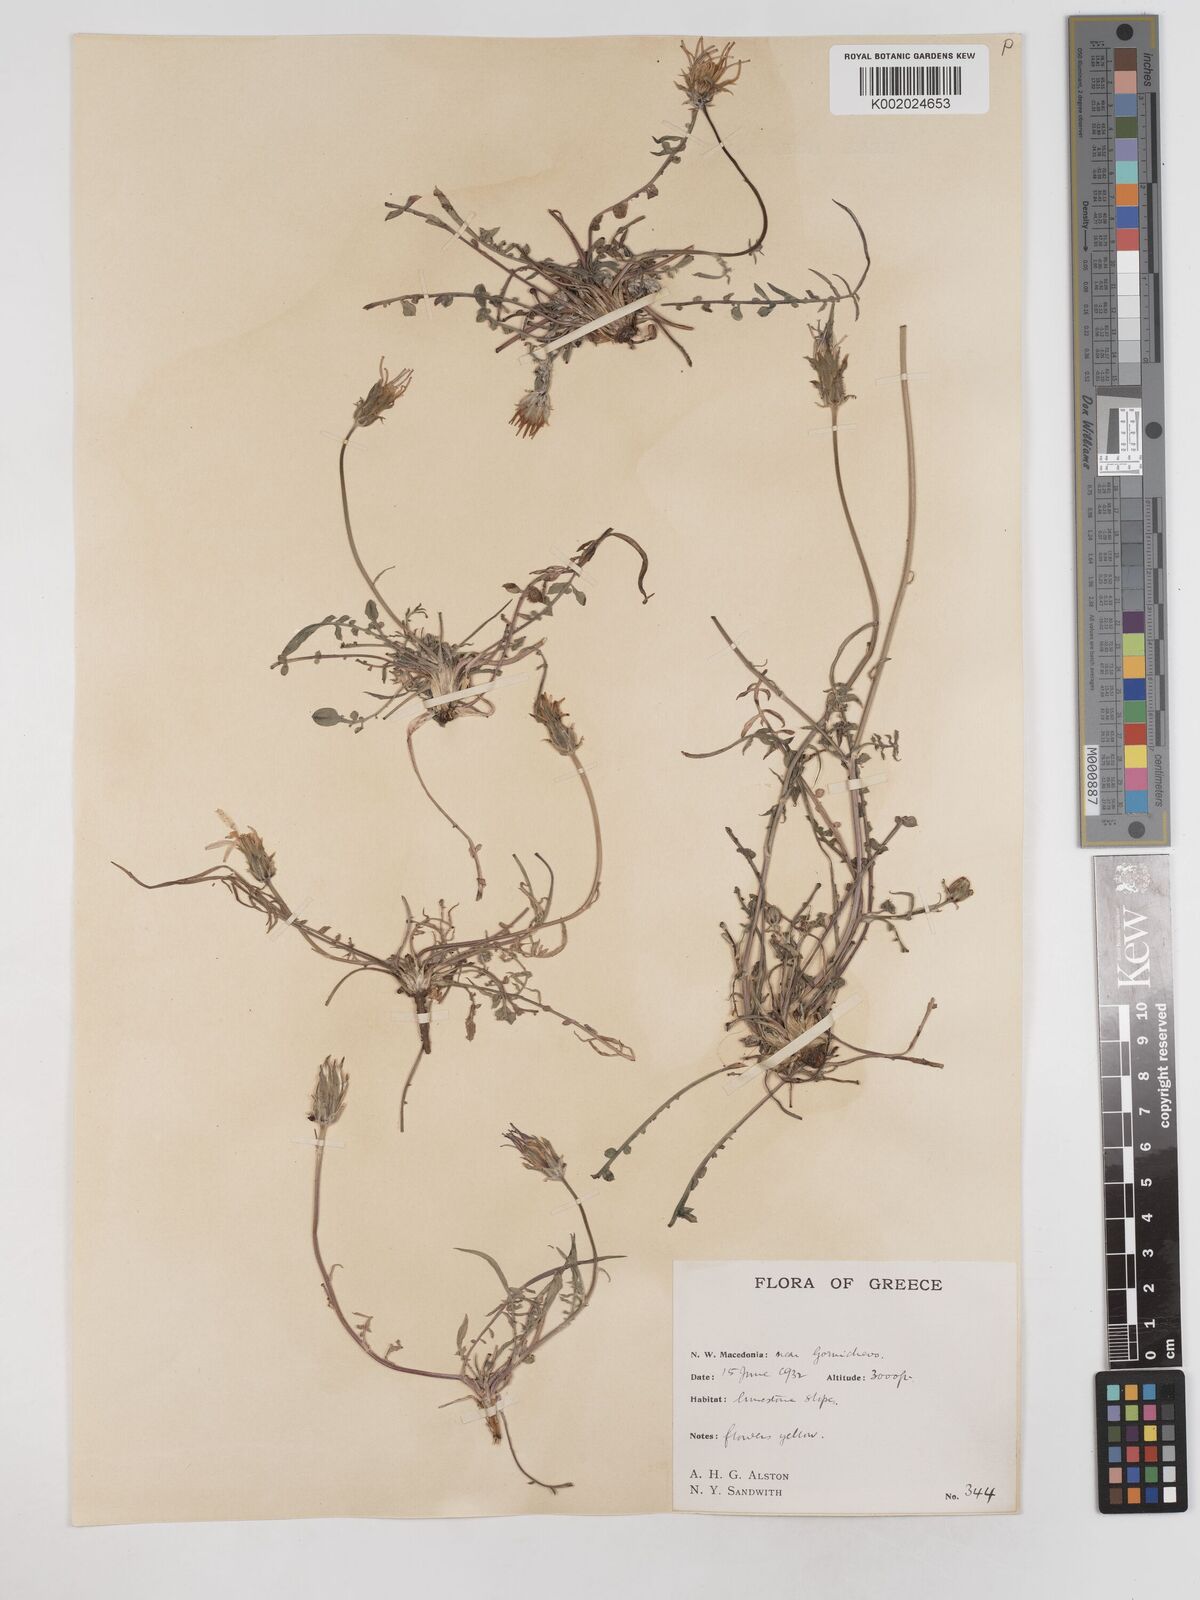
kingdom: Plantae
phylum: Tracheophyta
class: Magnoliopsida
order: Asterales
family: Asteraceae
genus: Scorzonera
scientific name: Scorzonera cana
